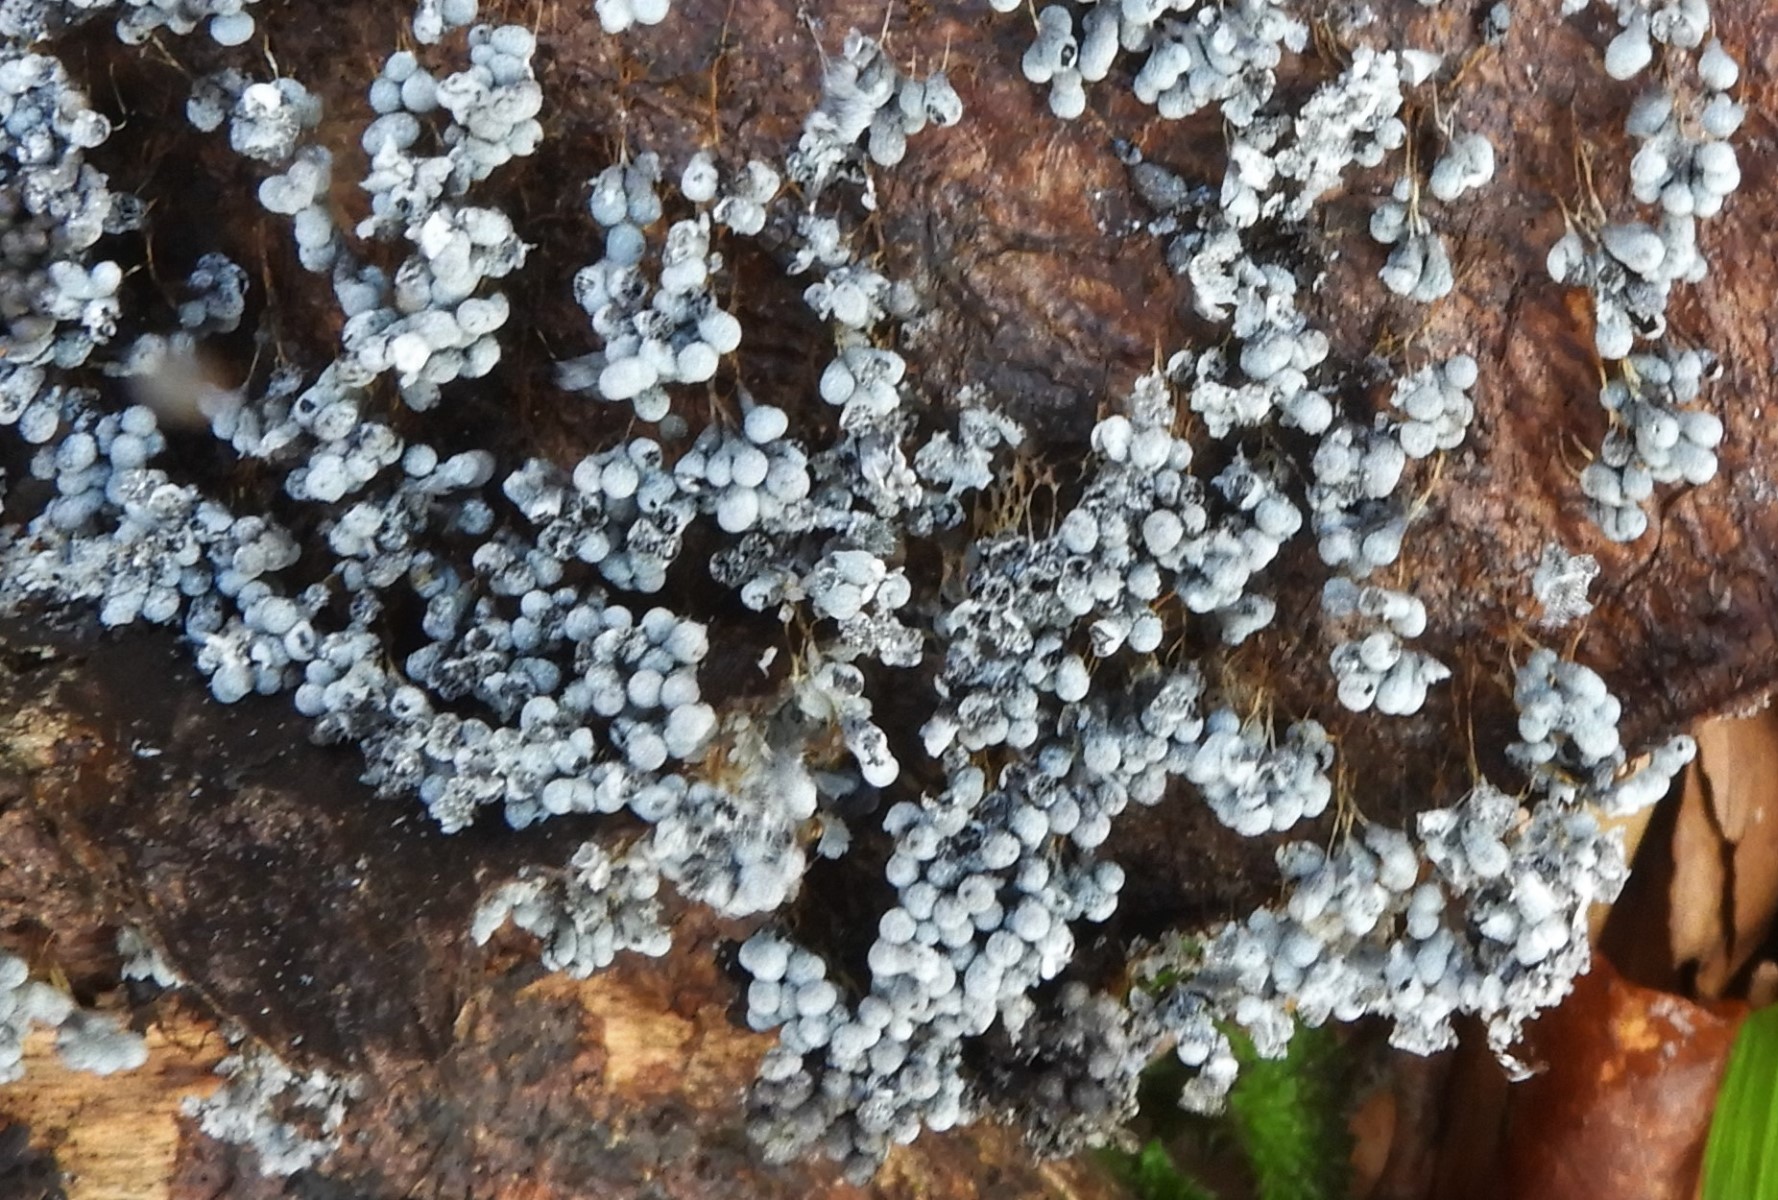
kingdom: Protozoa
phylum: Mycetozoa
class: Myxomycetes
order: Physarales
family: Physaraceae
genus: Badhamia
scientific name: Badhamia utricularis
